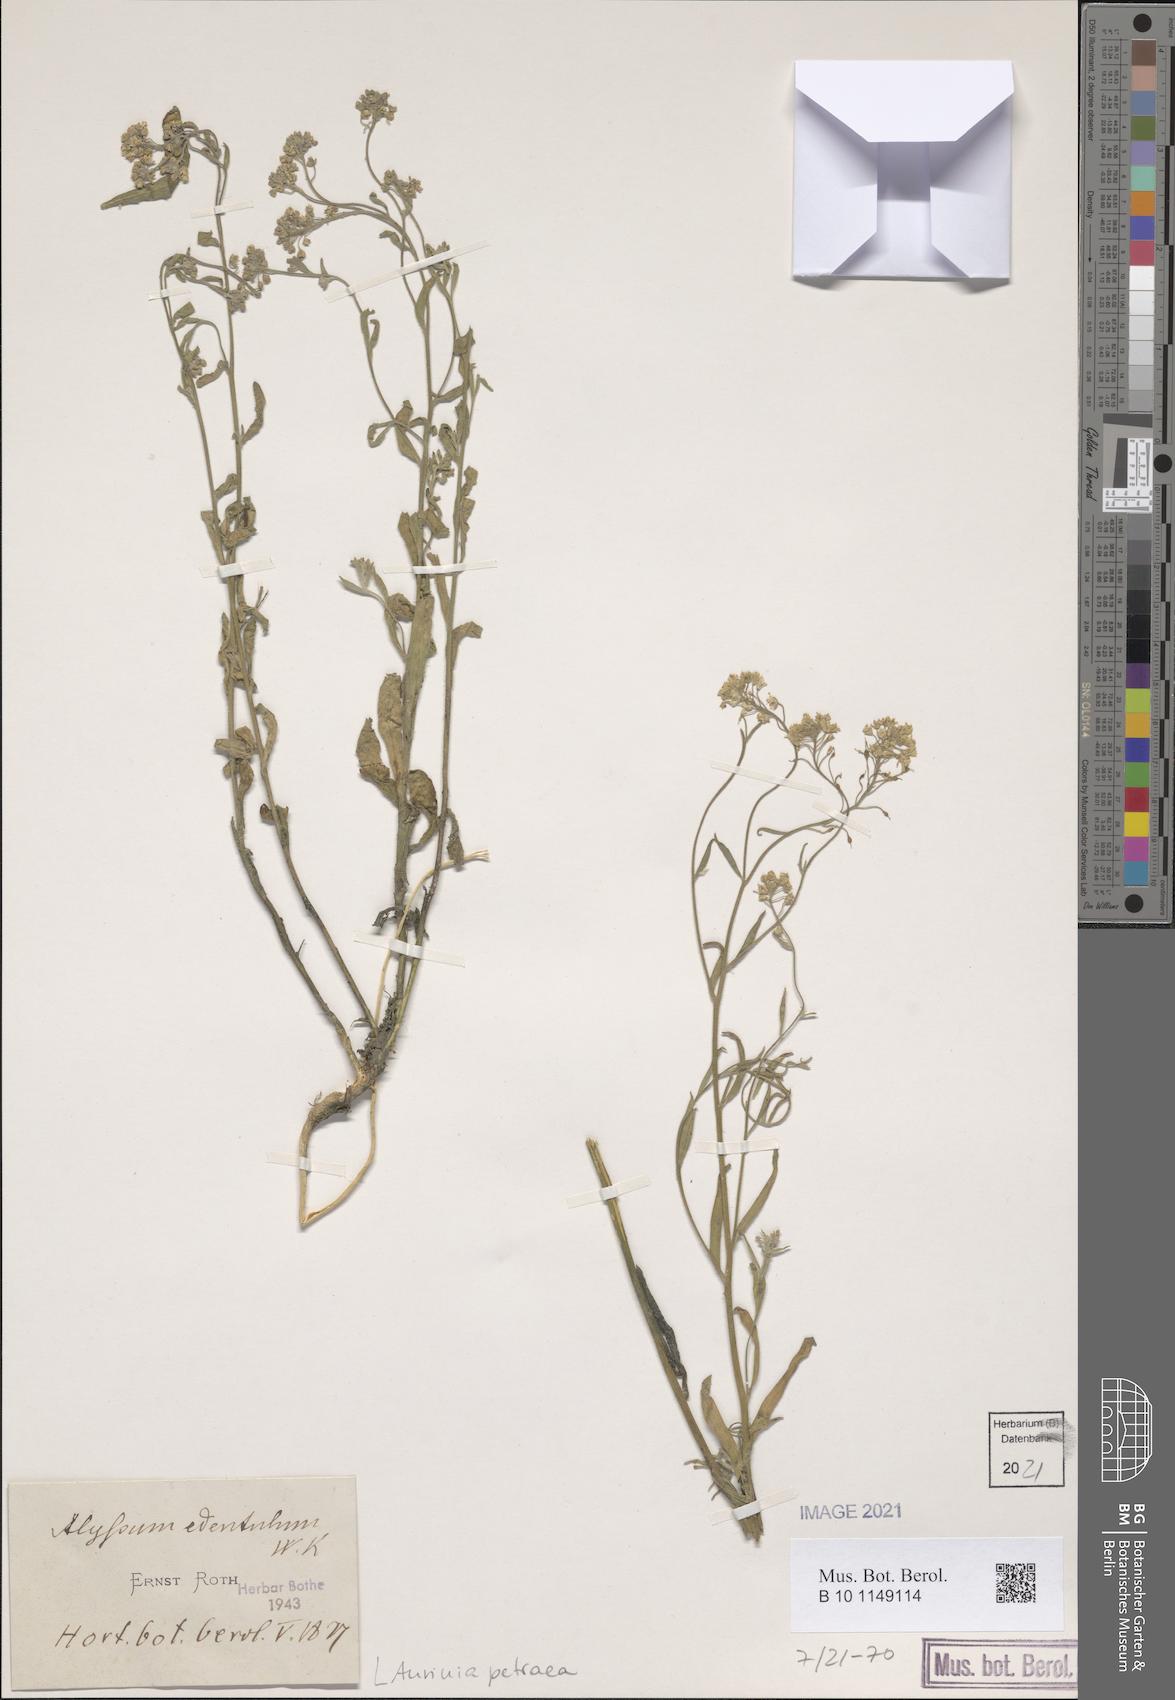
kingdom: Plantae
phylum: Tracheophyta
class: Magnoliopsida
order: Brassicales
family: Brassicaceae
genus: Aurinia
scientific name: Aurinia petraea
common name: Goldentuft
